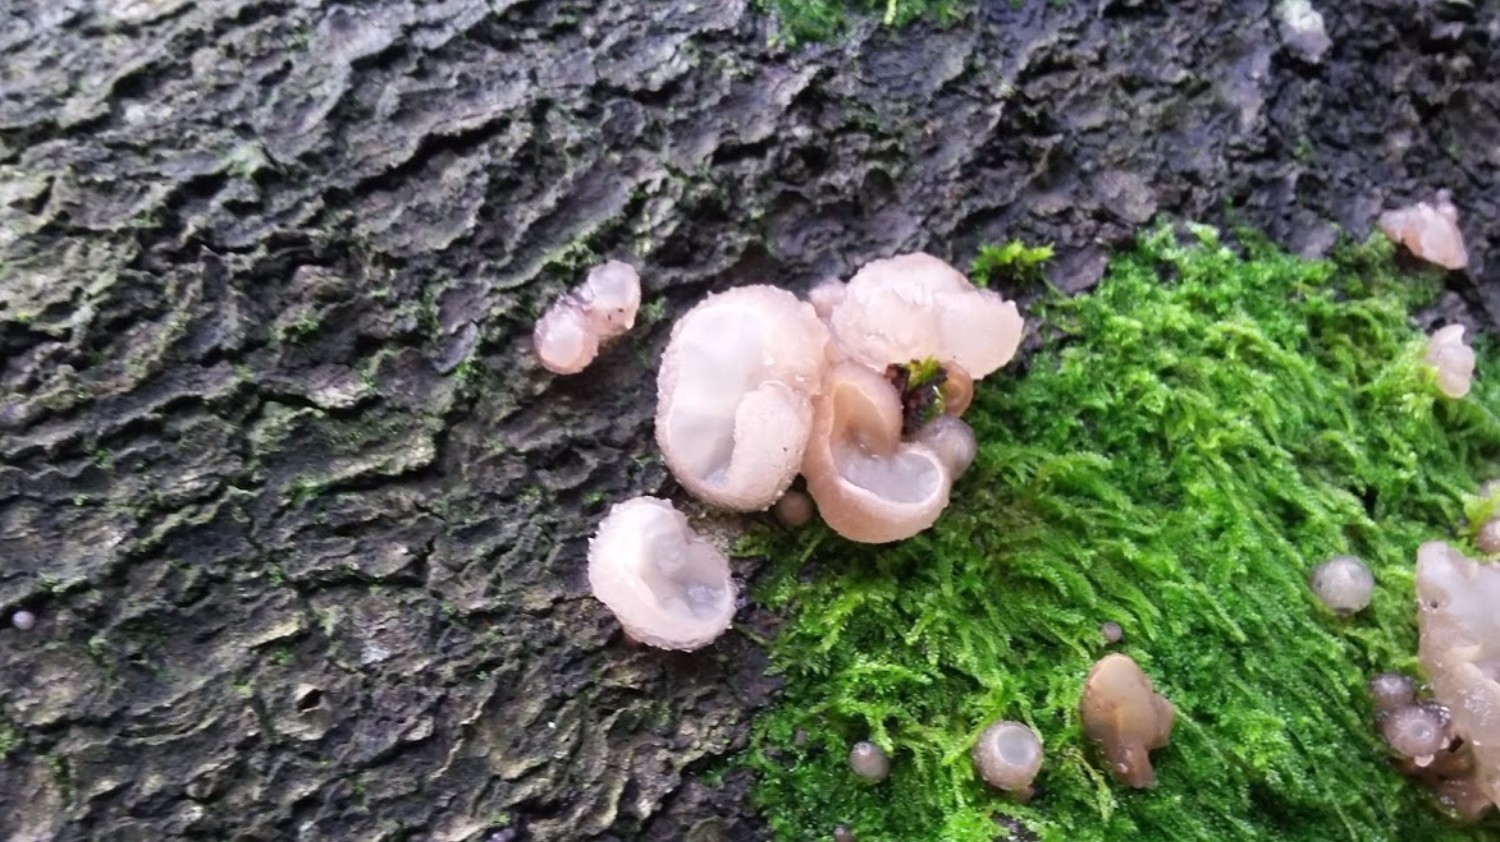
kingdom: Fungi
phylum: Ascomycota
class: Leotiomycetes
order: Helotiales
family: Gelatinodiscaceae
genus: Neobulgaria
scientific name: Neobulgaria pura
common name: bleg bævreskive
